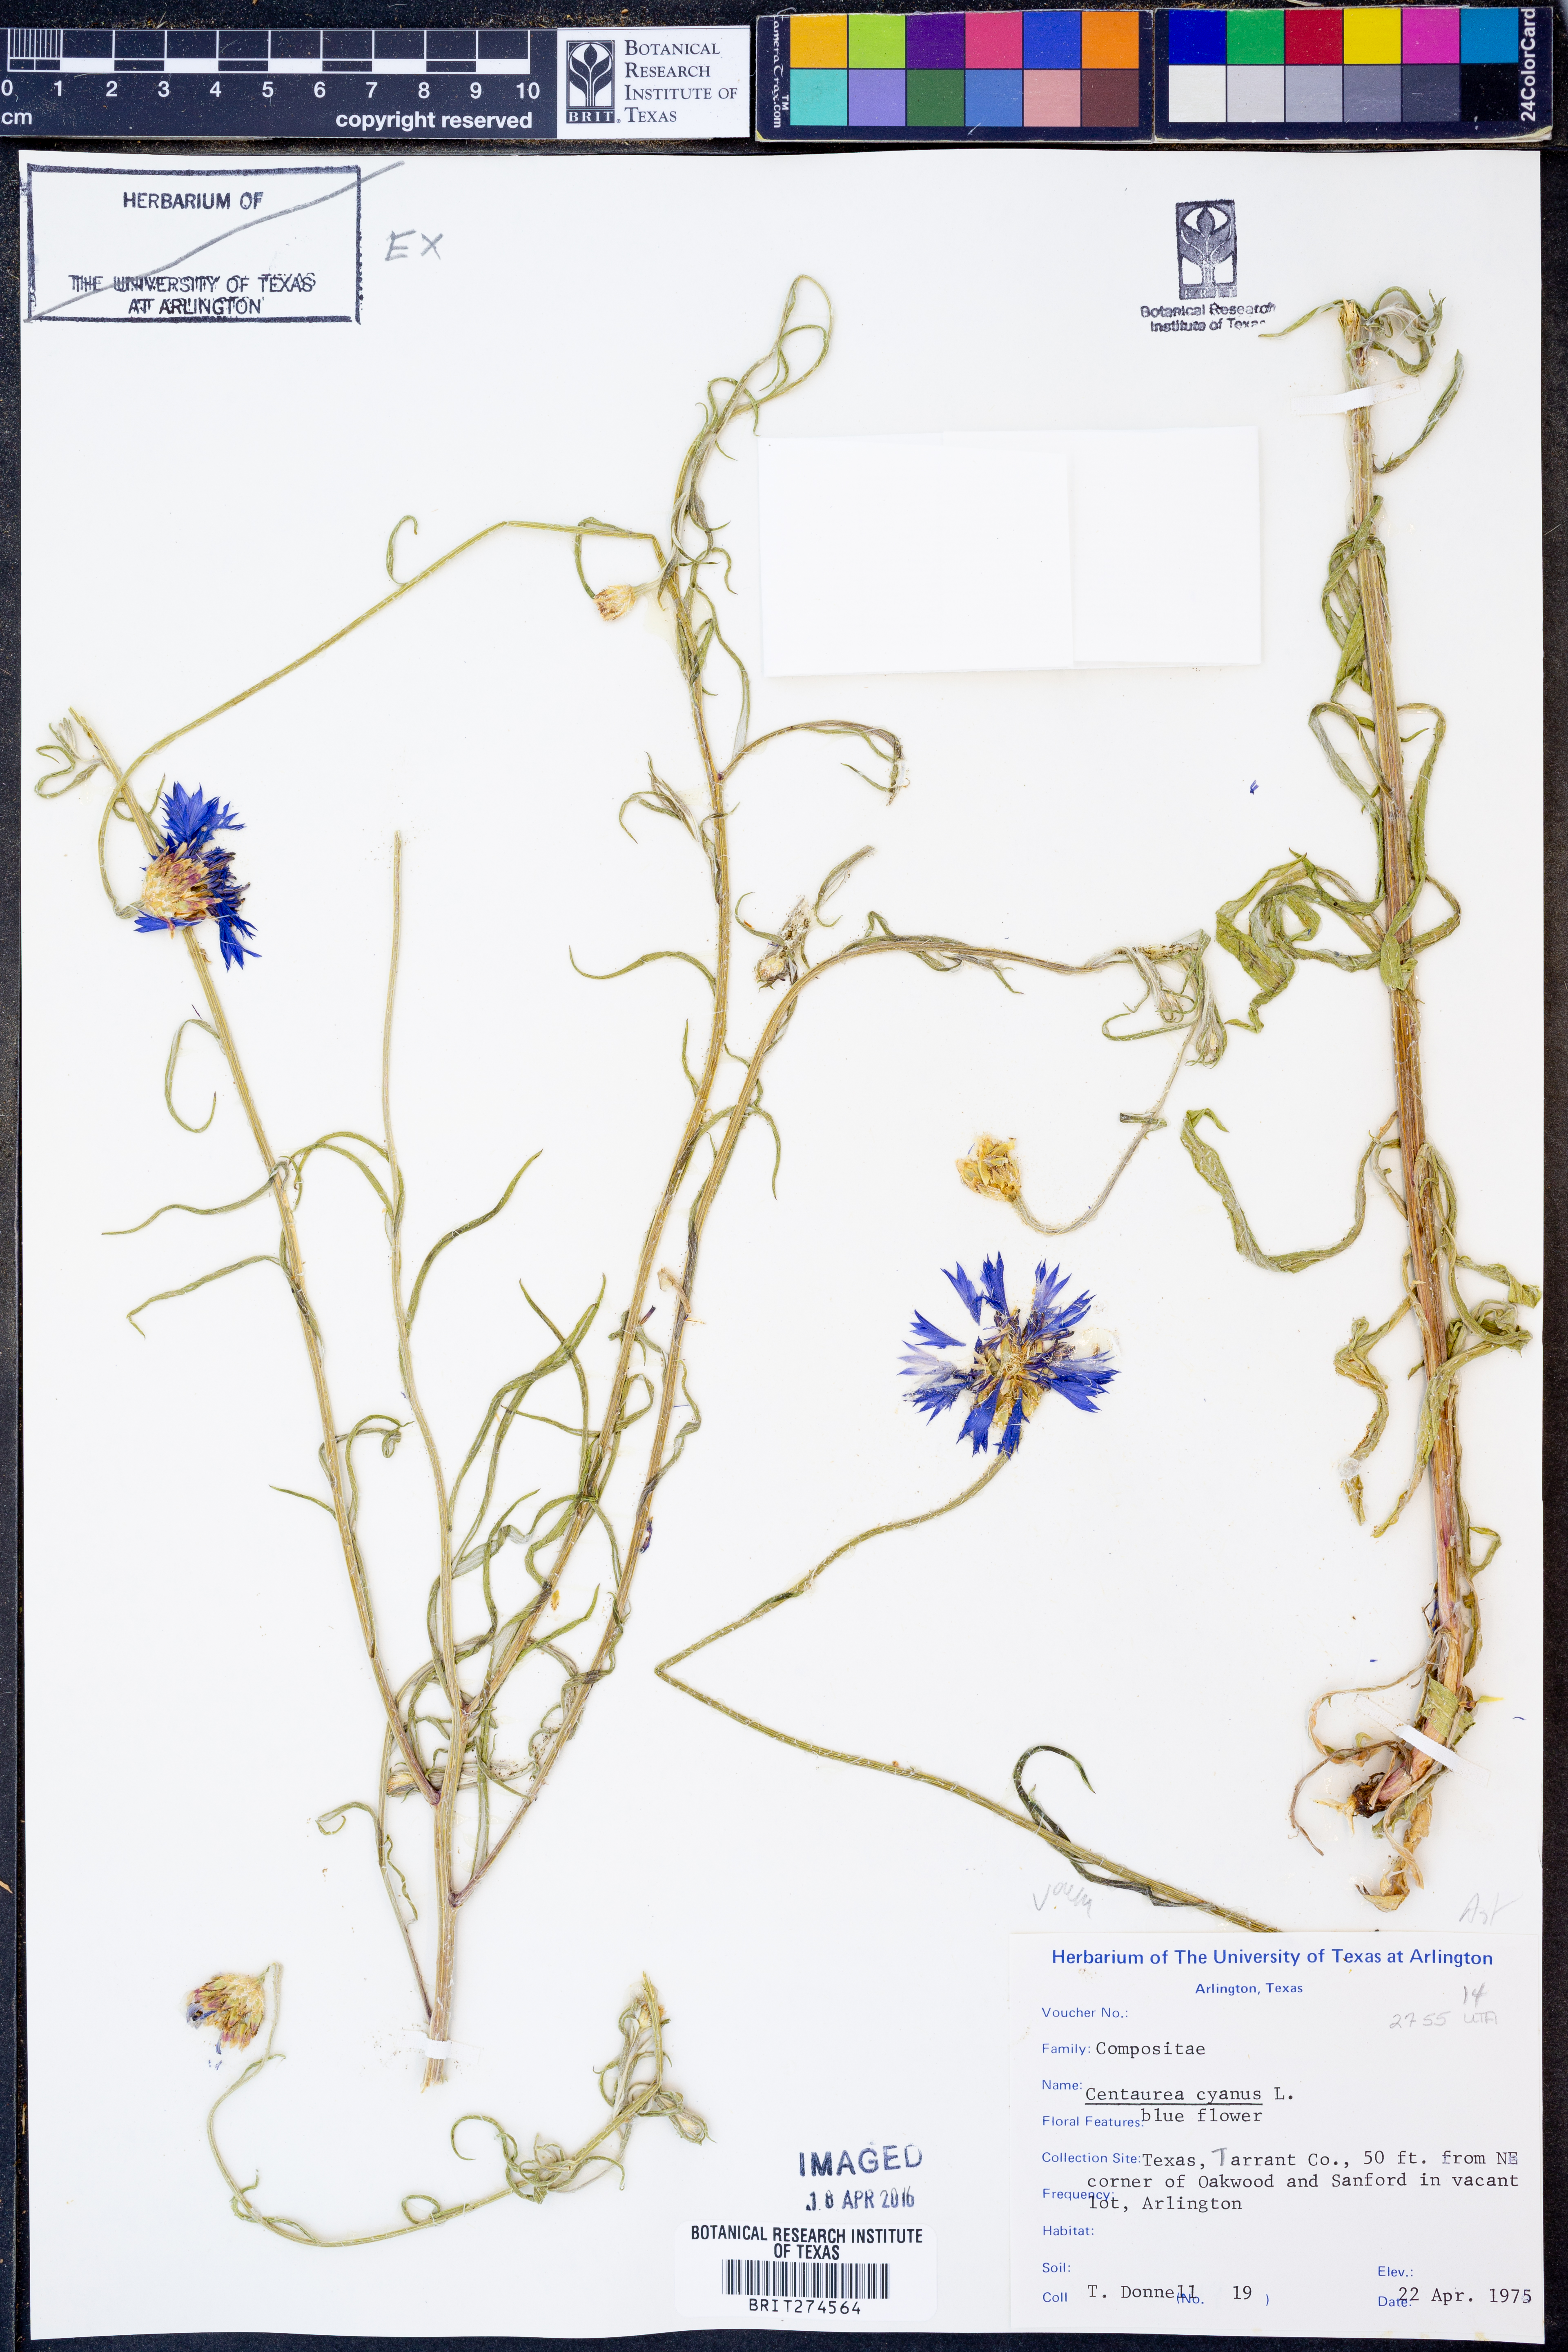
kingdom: Plantae
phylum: Tracheophyta
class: Magnoliopsida
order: Asterales
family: Asteraceae
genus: Centaurea
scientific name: Centaurea cyanus
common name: Cornflower
